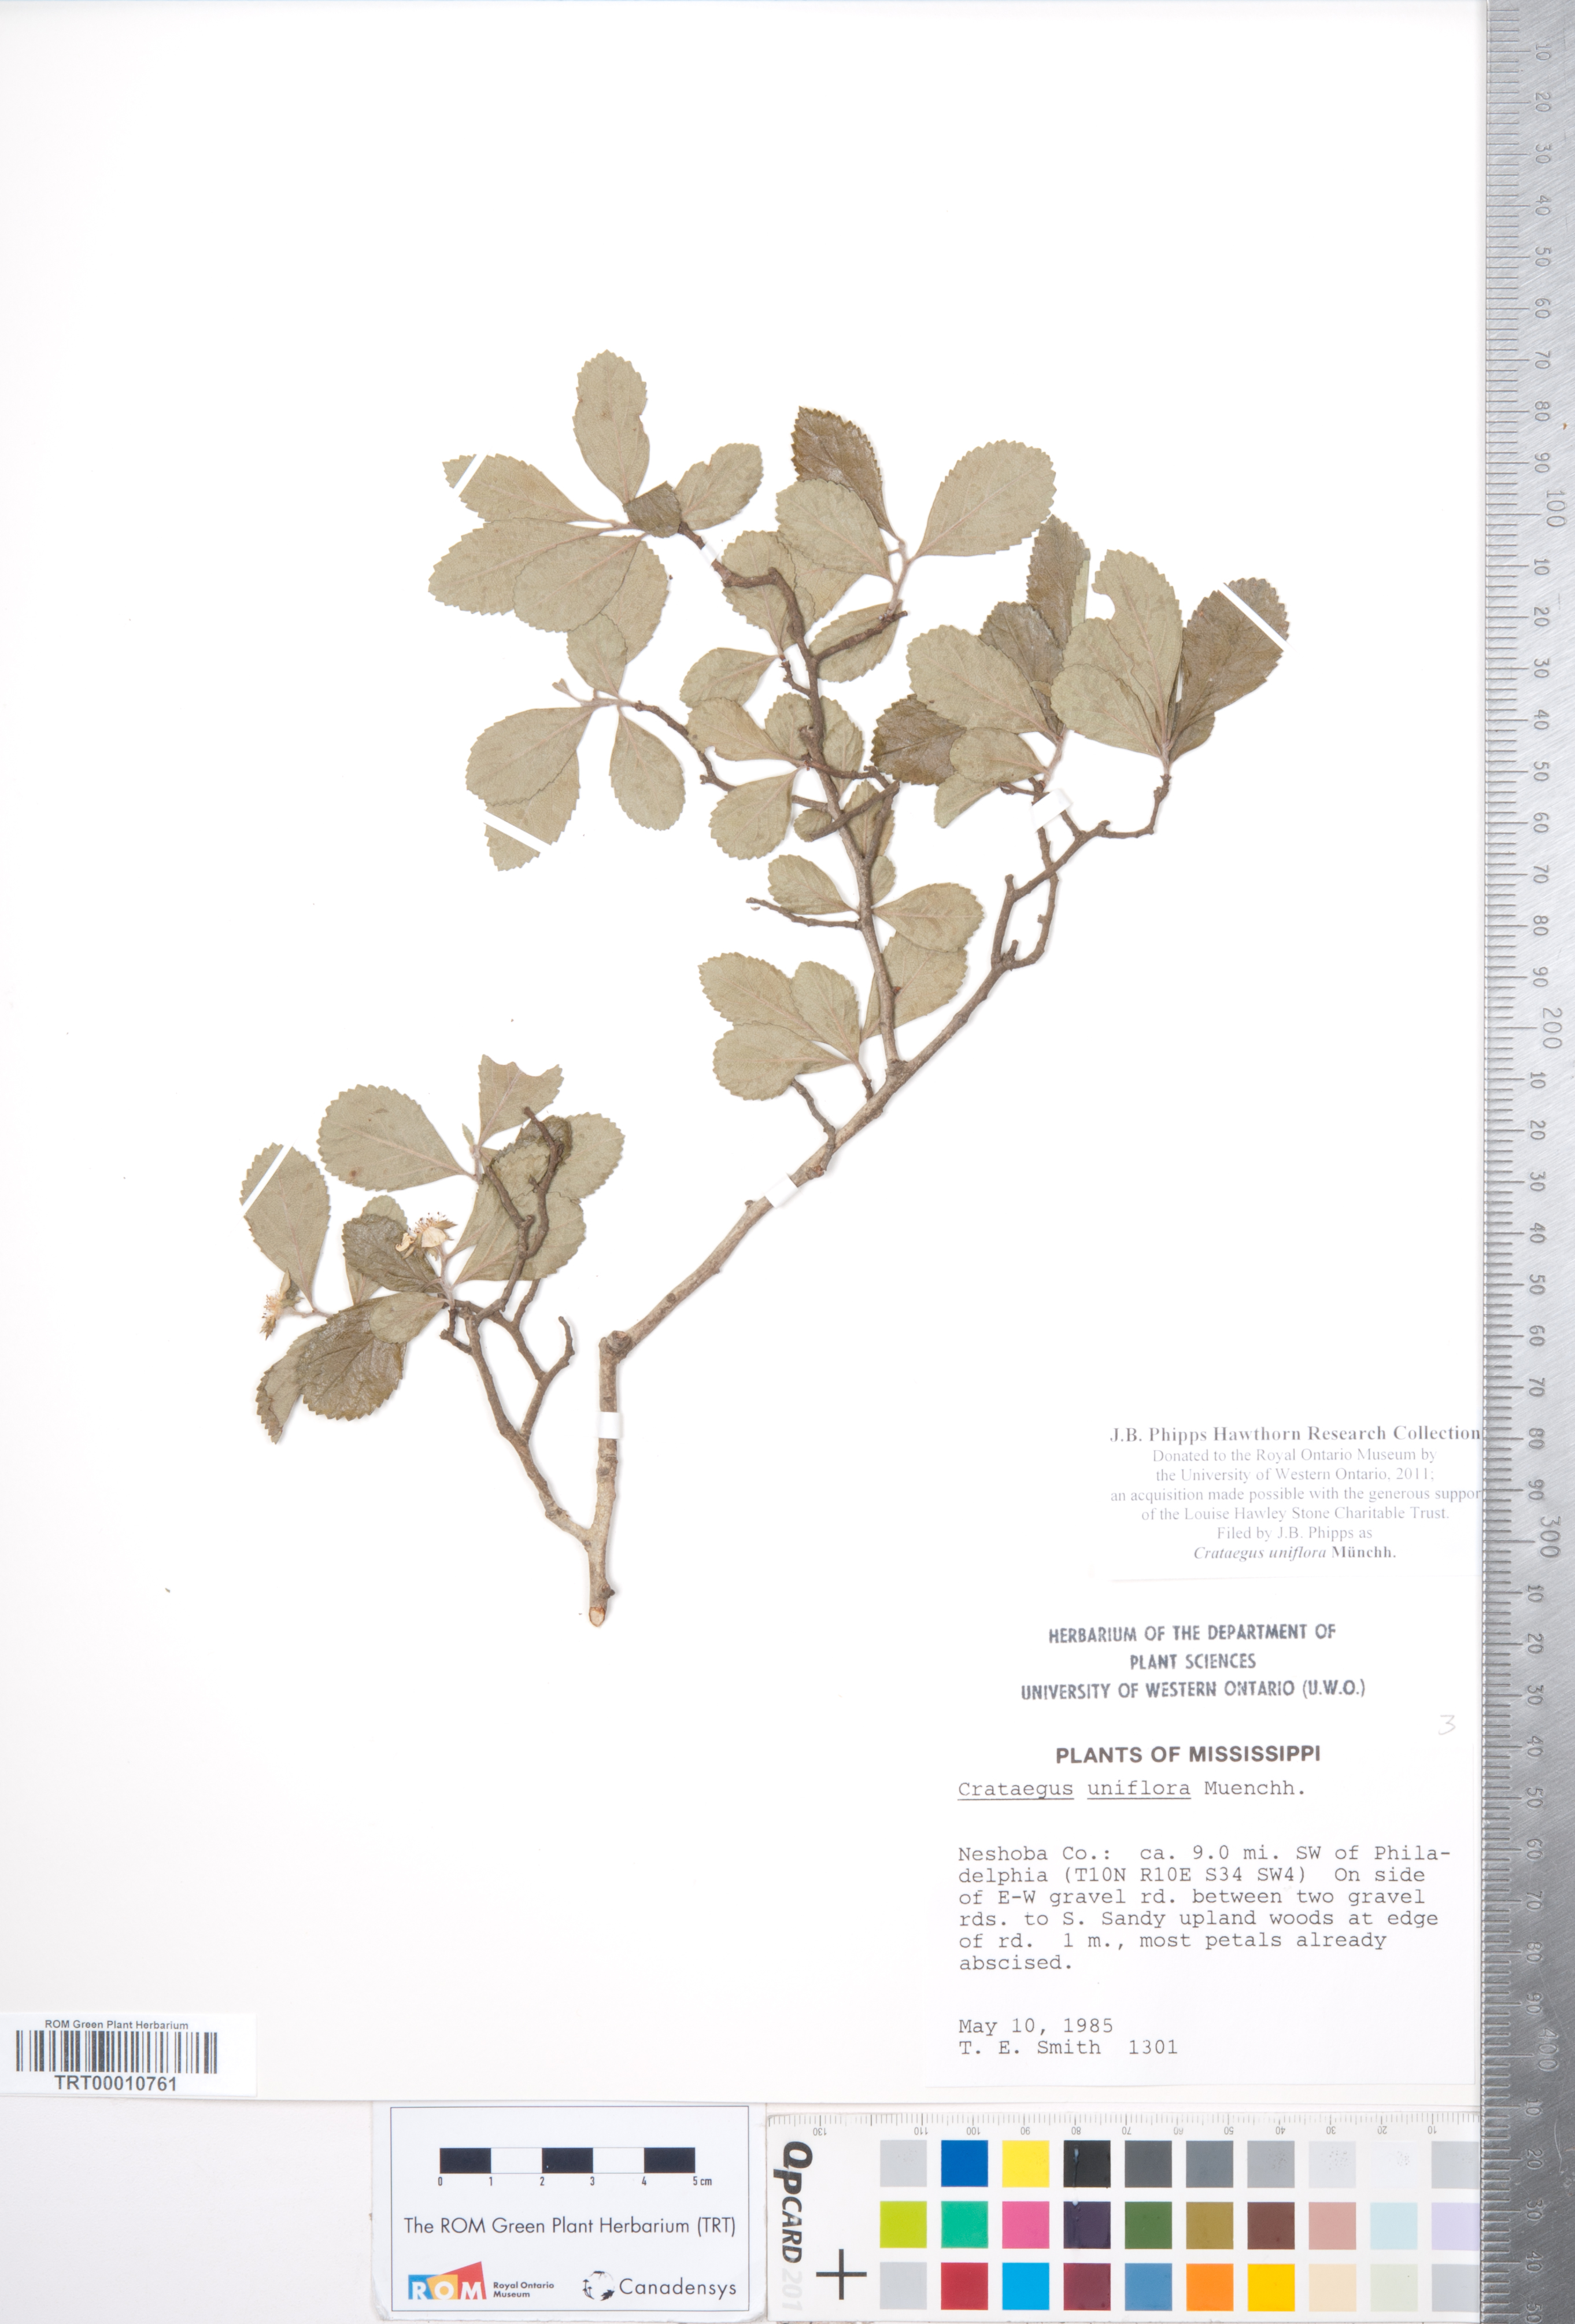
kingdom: Plantae
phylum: Tracheophyta
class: Magnoliopsida
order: Rosales
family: Rosaceae
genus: Crataegus
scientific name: Crataegus uniflora
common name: One-flower hawthorn
